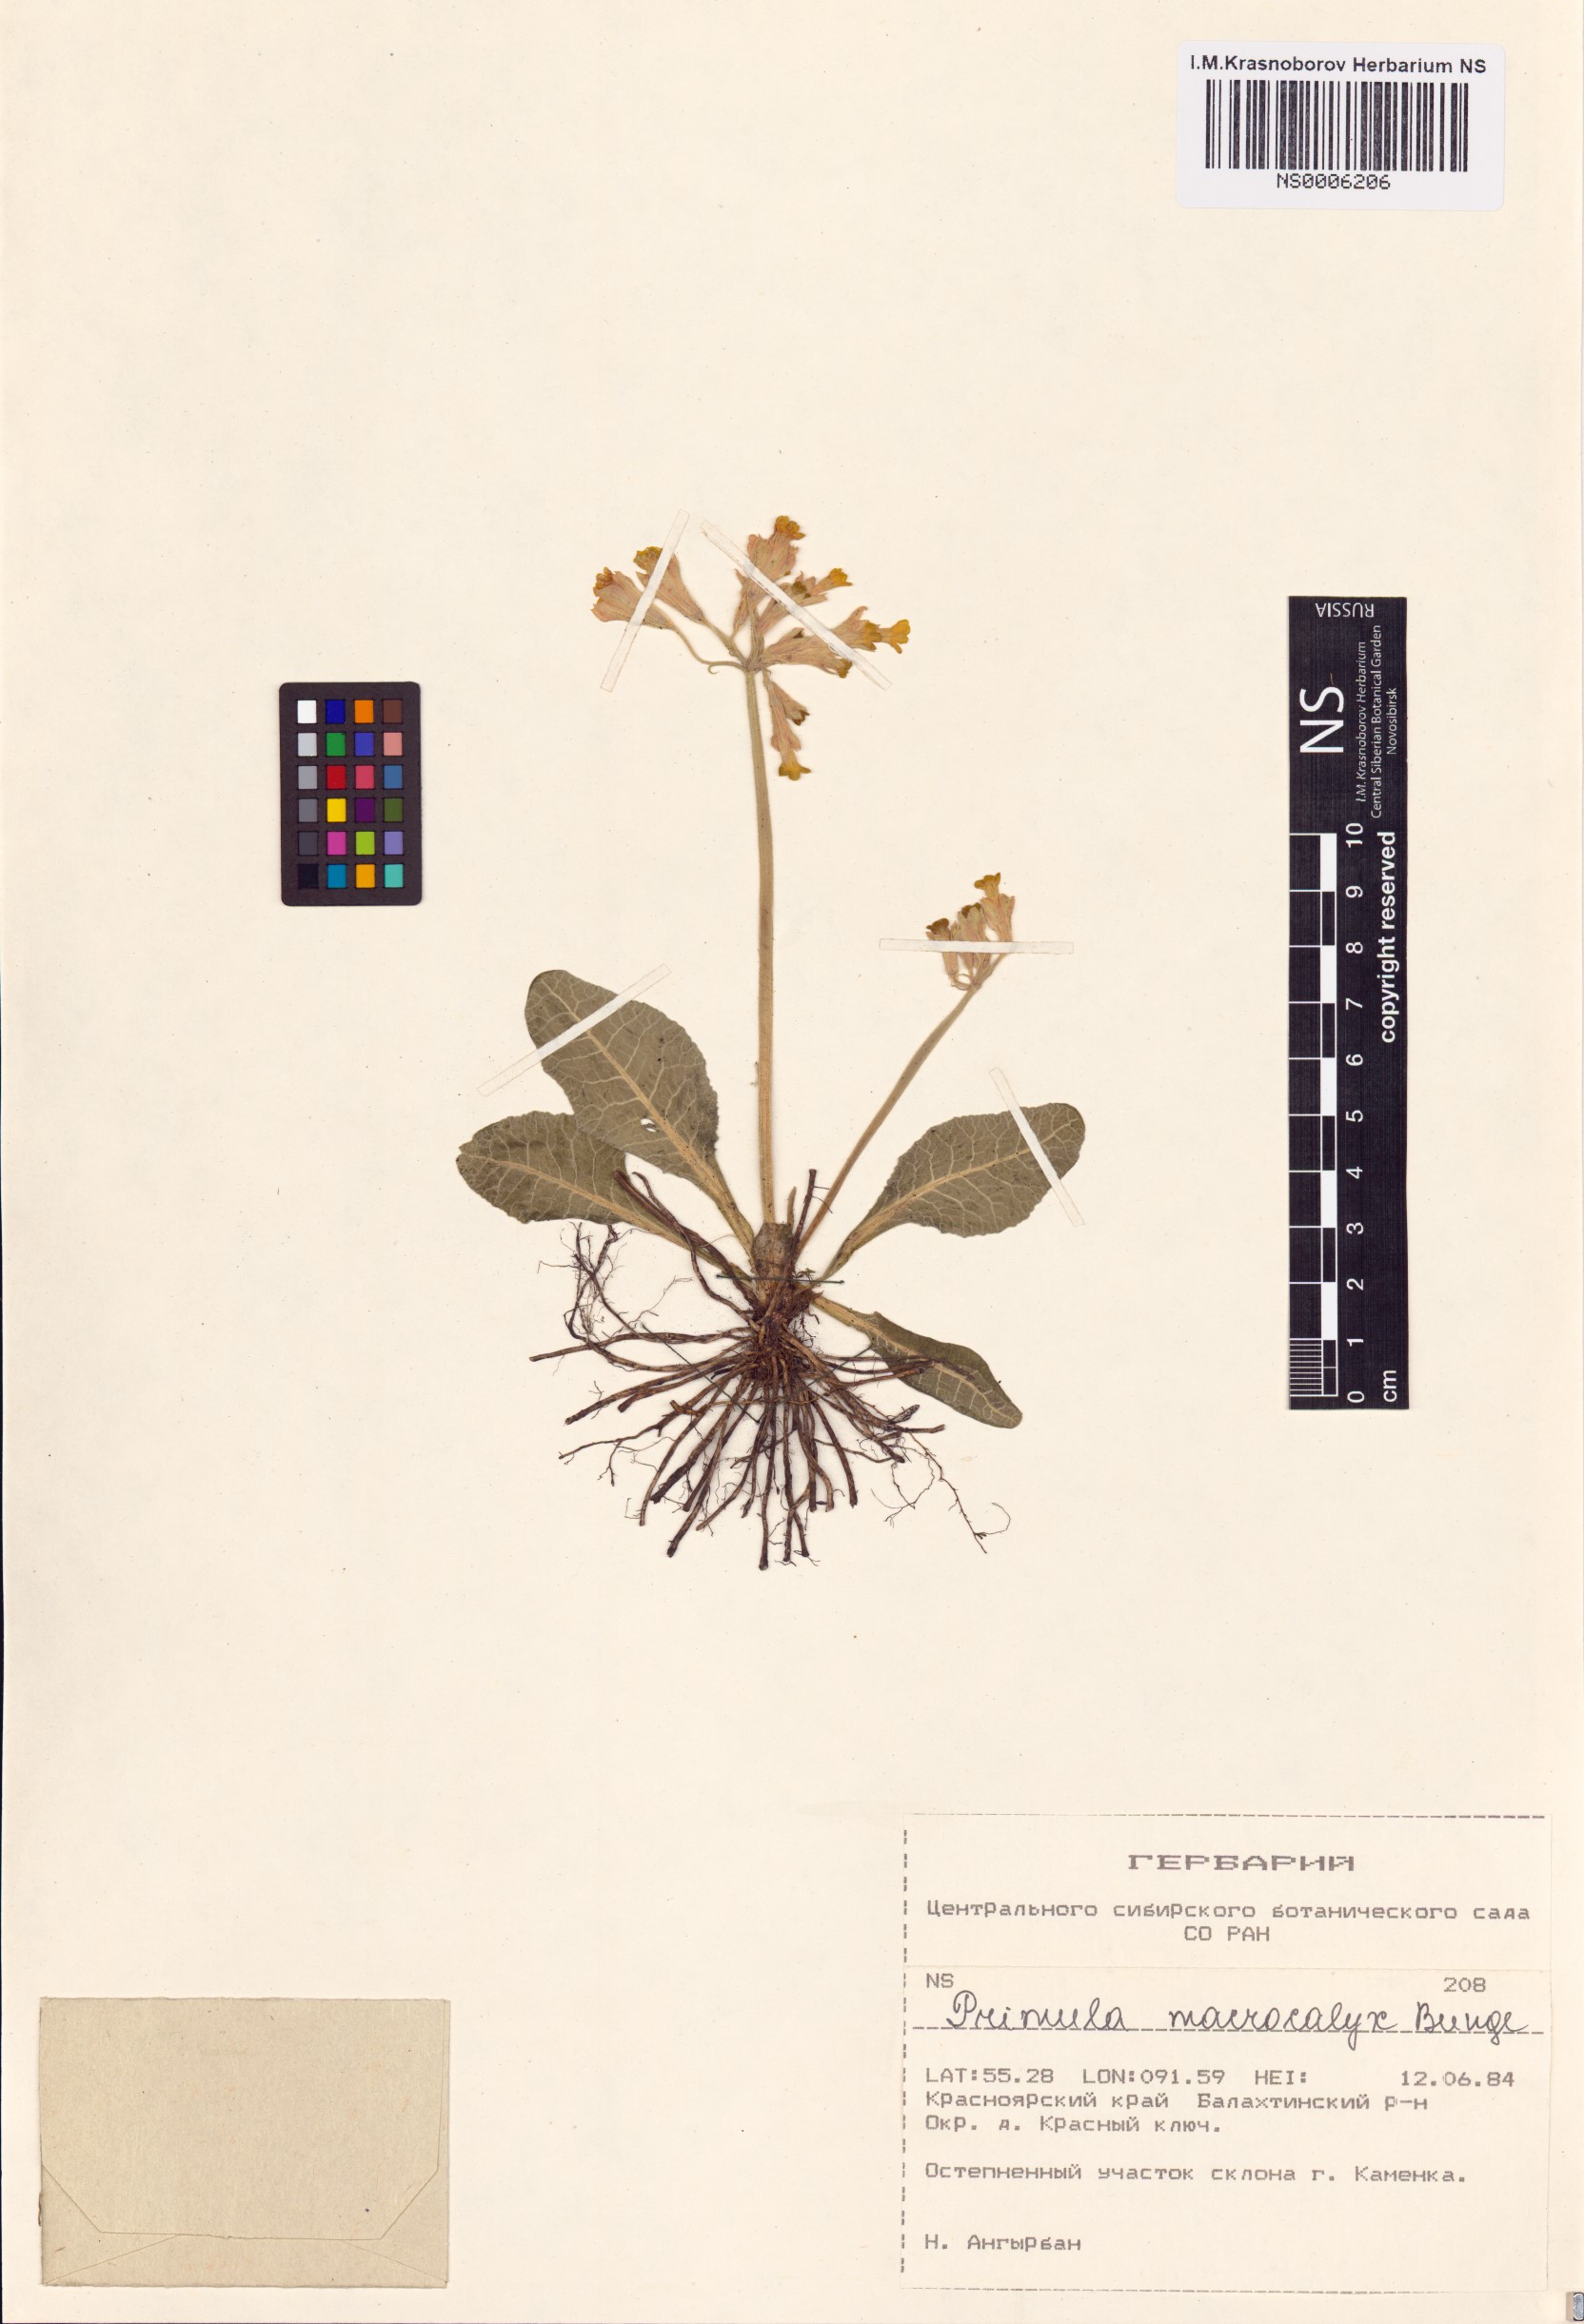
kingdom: Plantae
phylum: Tracheophyta
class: Magnoliopsida
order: Ericales
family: Primulaceae
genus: Primula
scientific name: Primula veris
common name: Cowslip
